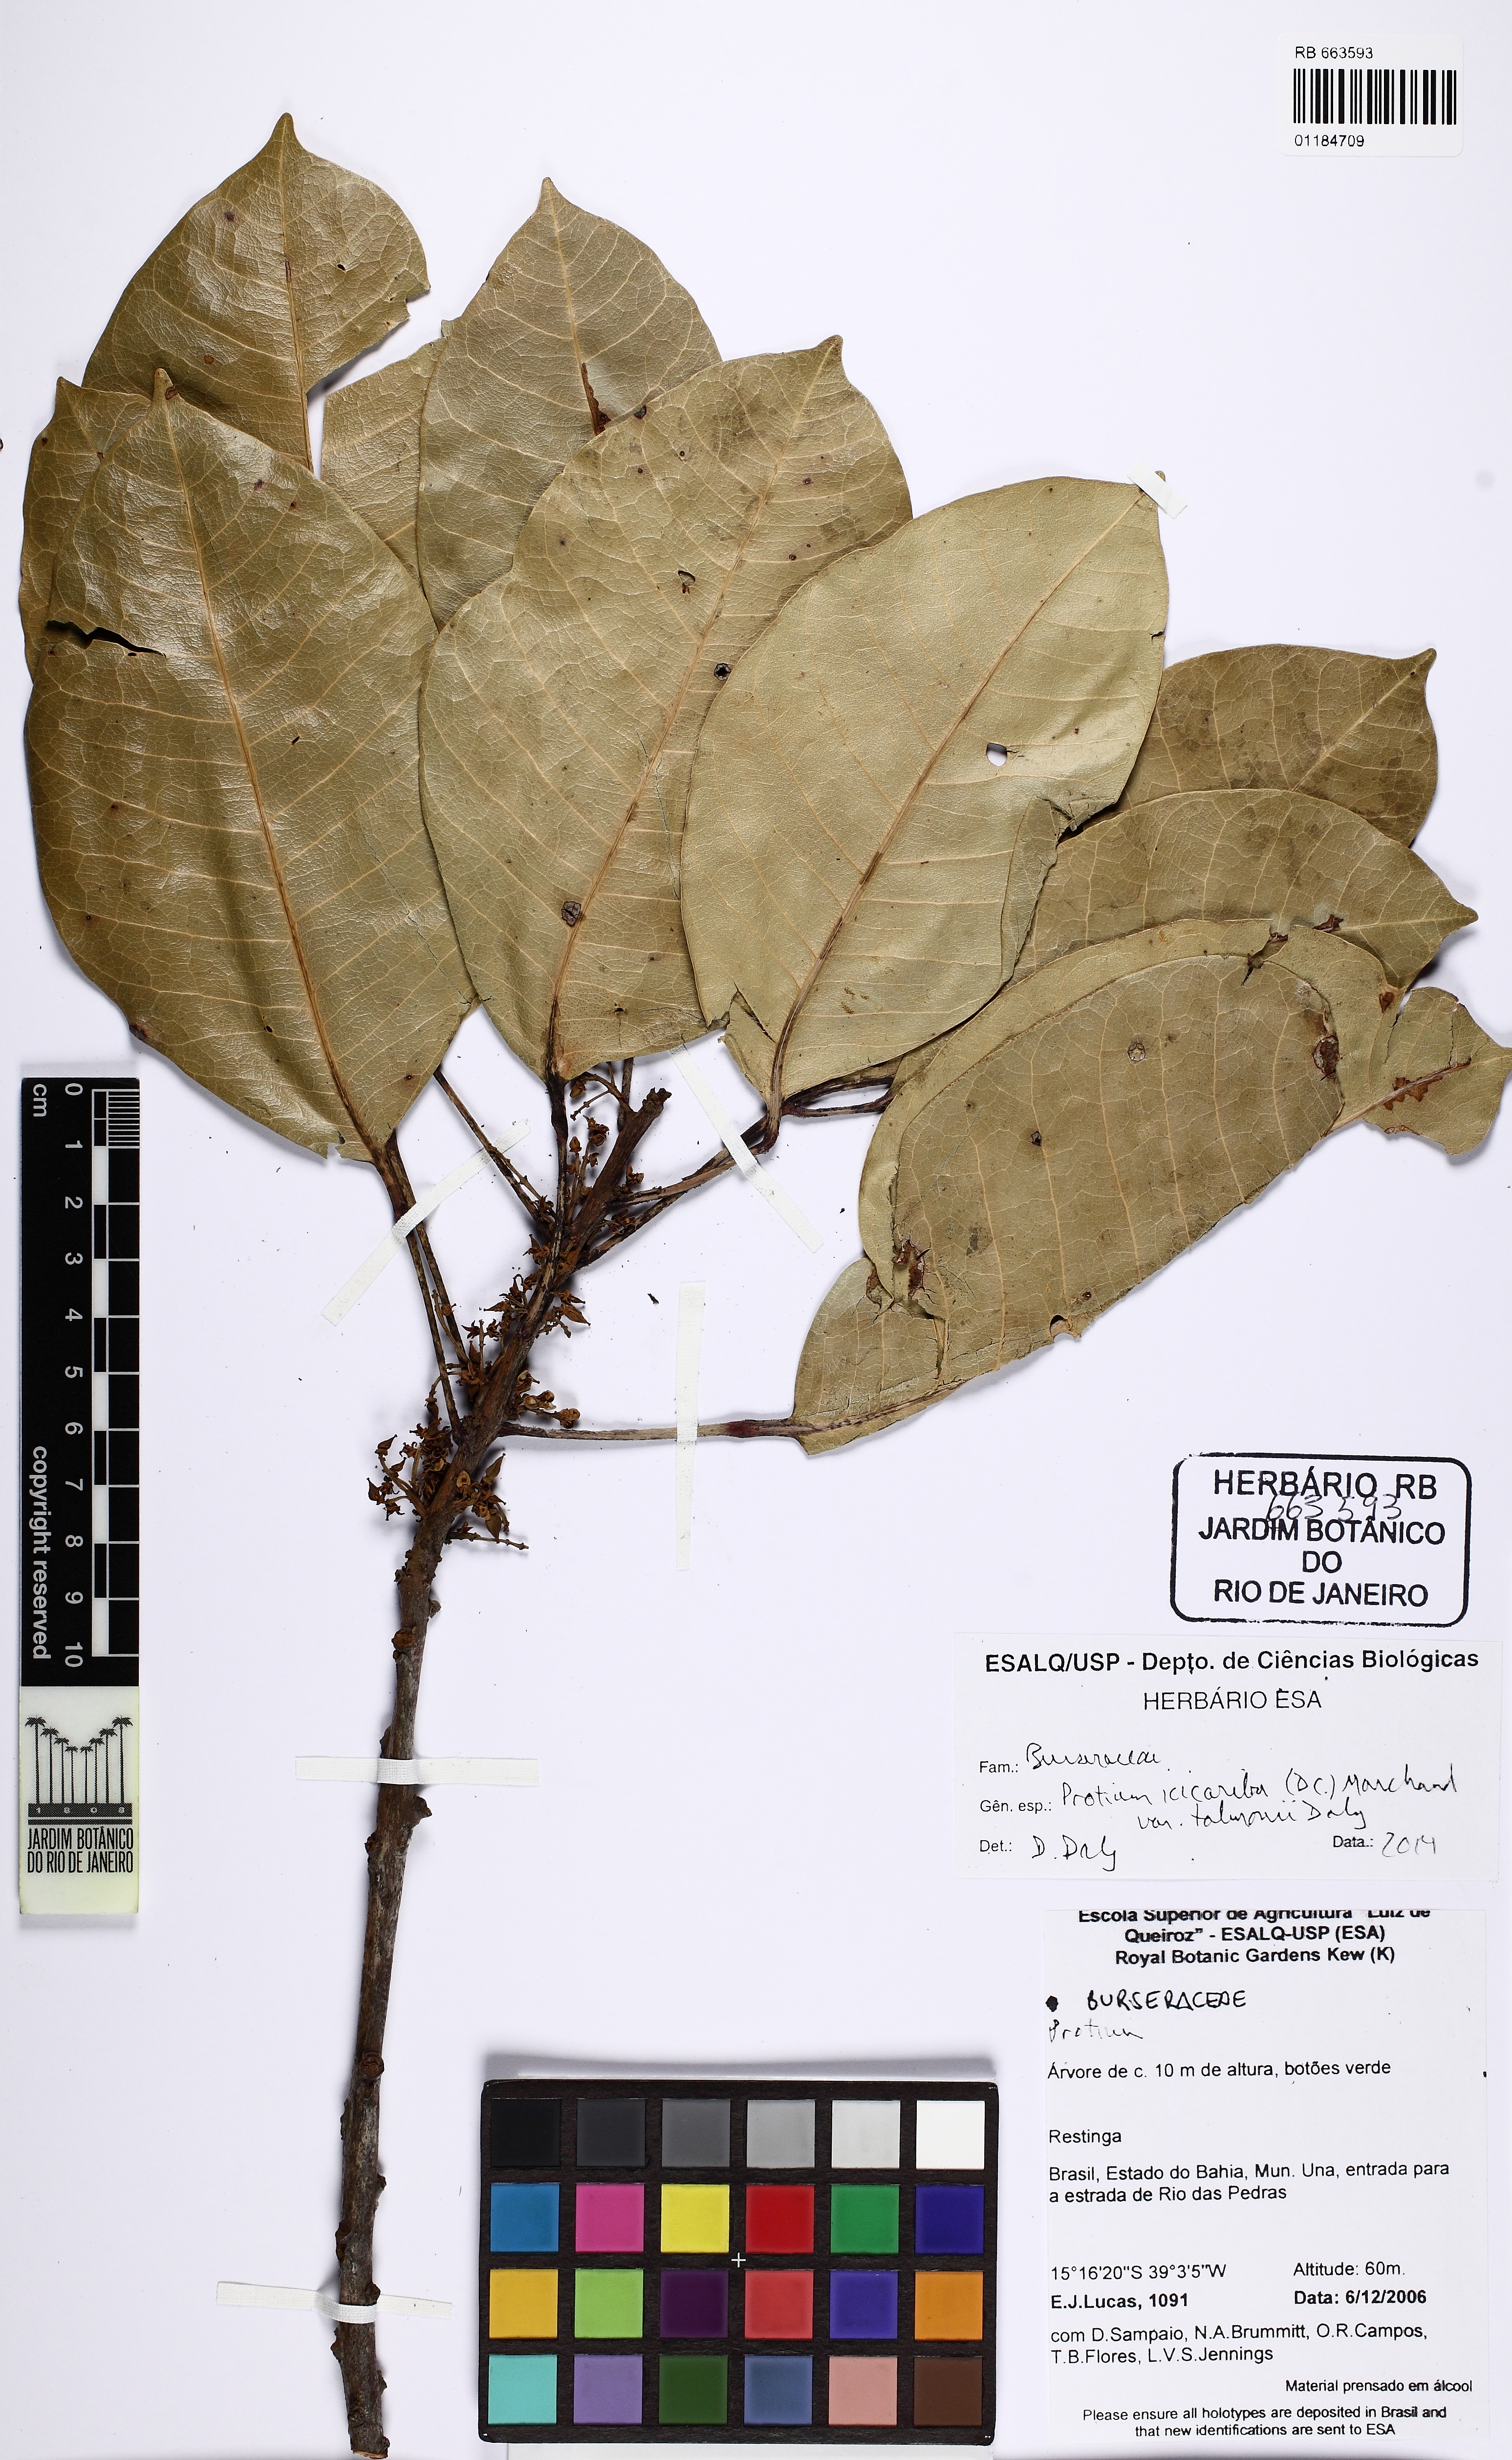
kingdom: Plantae
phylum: Tracheophyta
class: Magnoliopsida
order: Sapindales
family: Burseraceae
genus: Protium
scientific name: Protium icicariba
